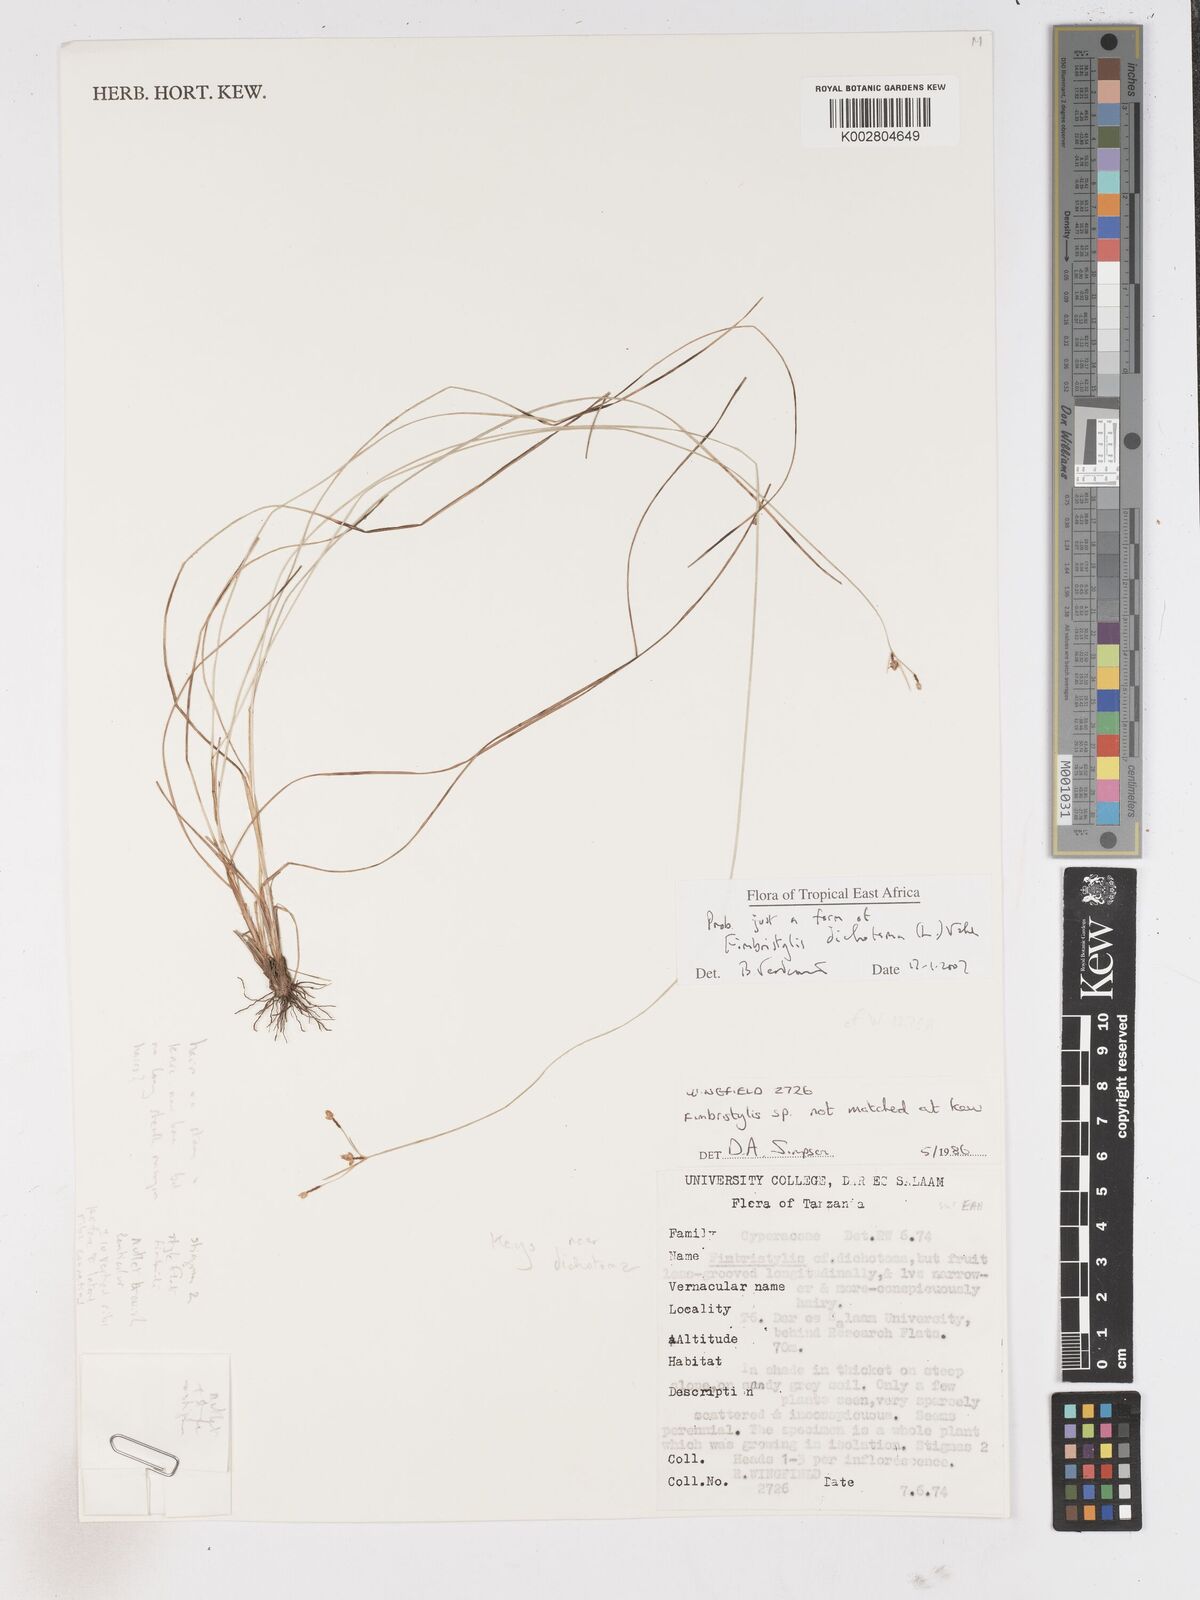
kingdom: Plantae
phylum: Tracheophyta
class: Liliopsida
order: Poales
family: Cyperaceae
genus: Fimbristylis
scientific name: Fimbristylis dichotoma
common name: Forked fimbry
